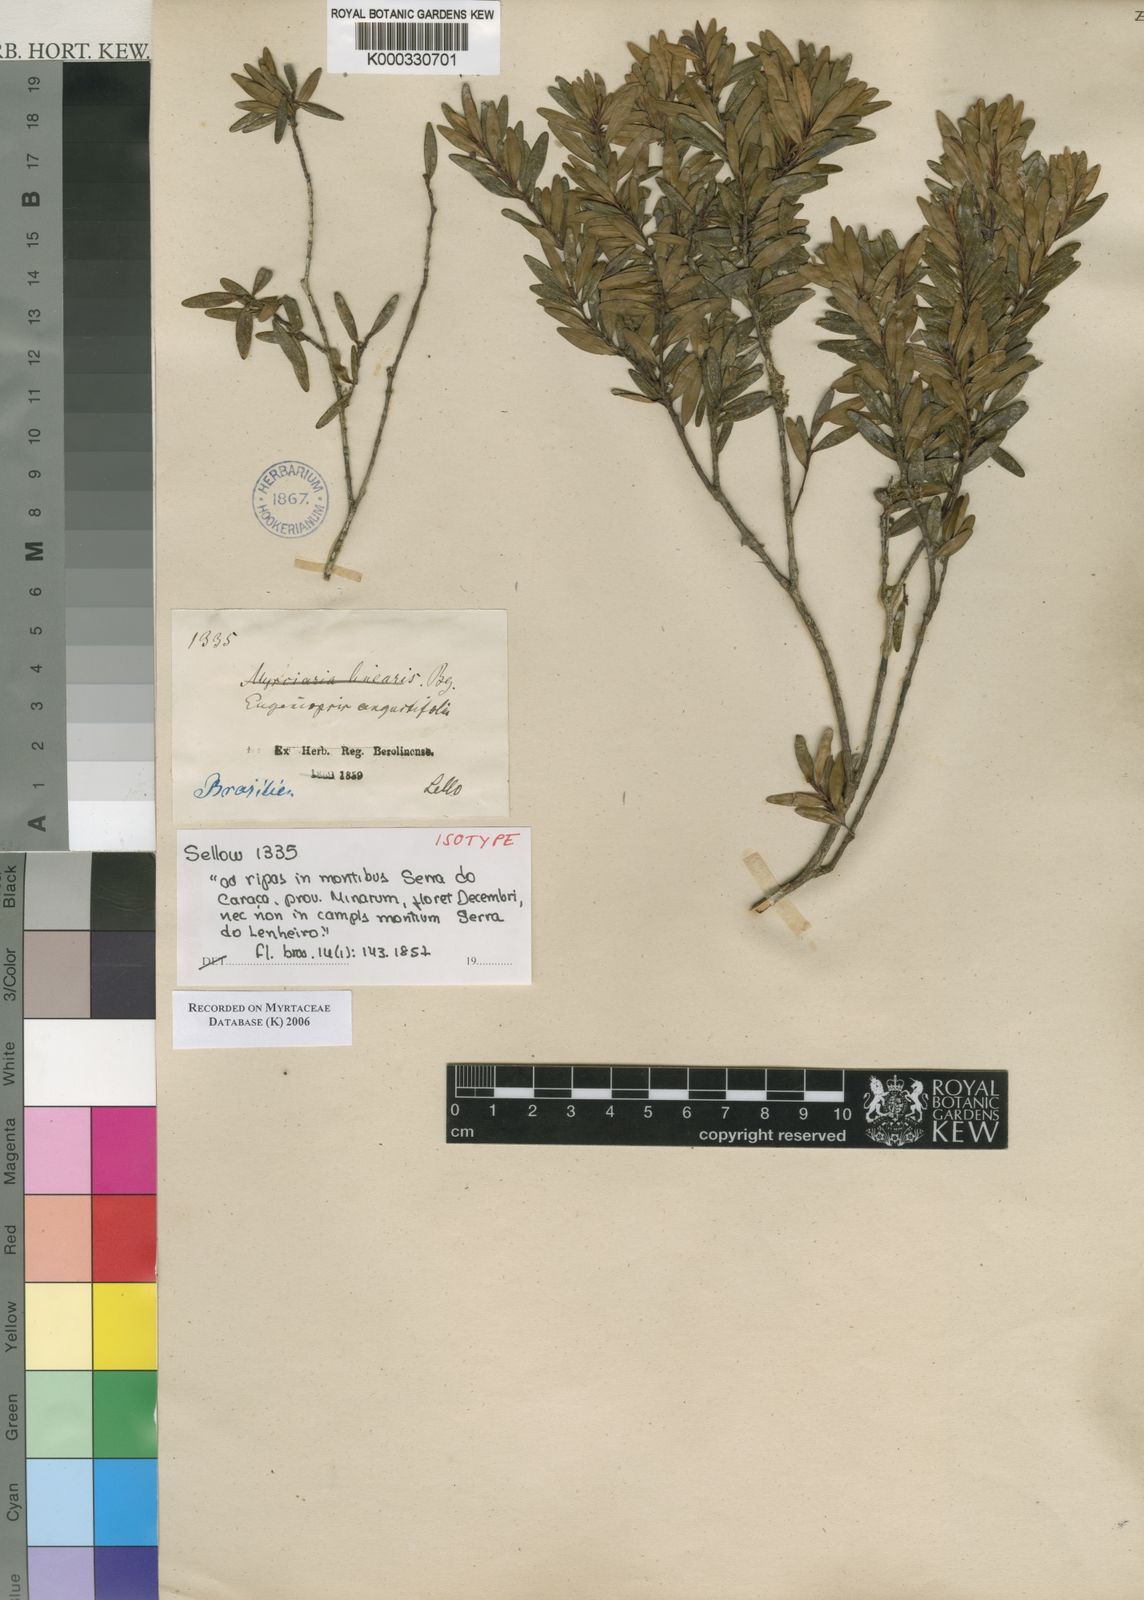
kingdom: Plantae
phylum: Tracheophyta
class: Magnoliopsida
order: Myrtales
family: Myrtaceae
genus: Myrcia
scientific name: Myrcia lenheirensis
